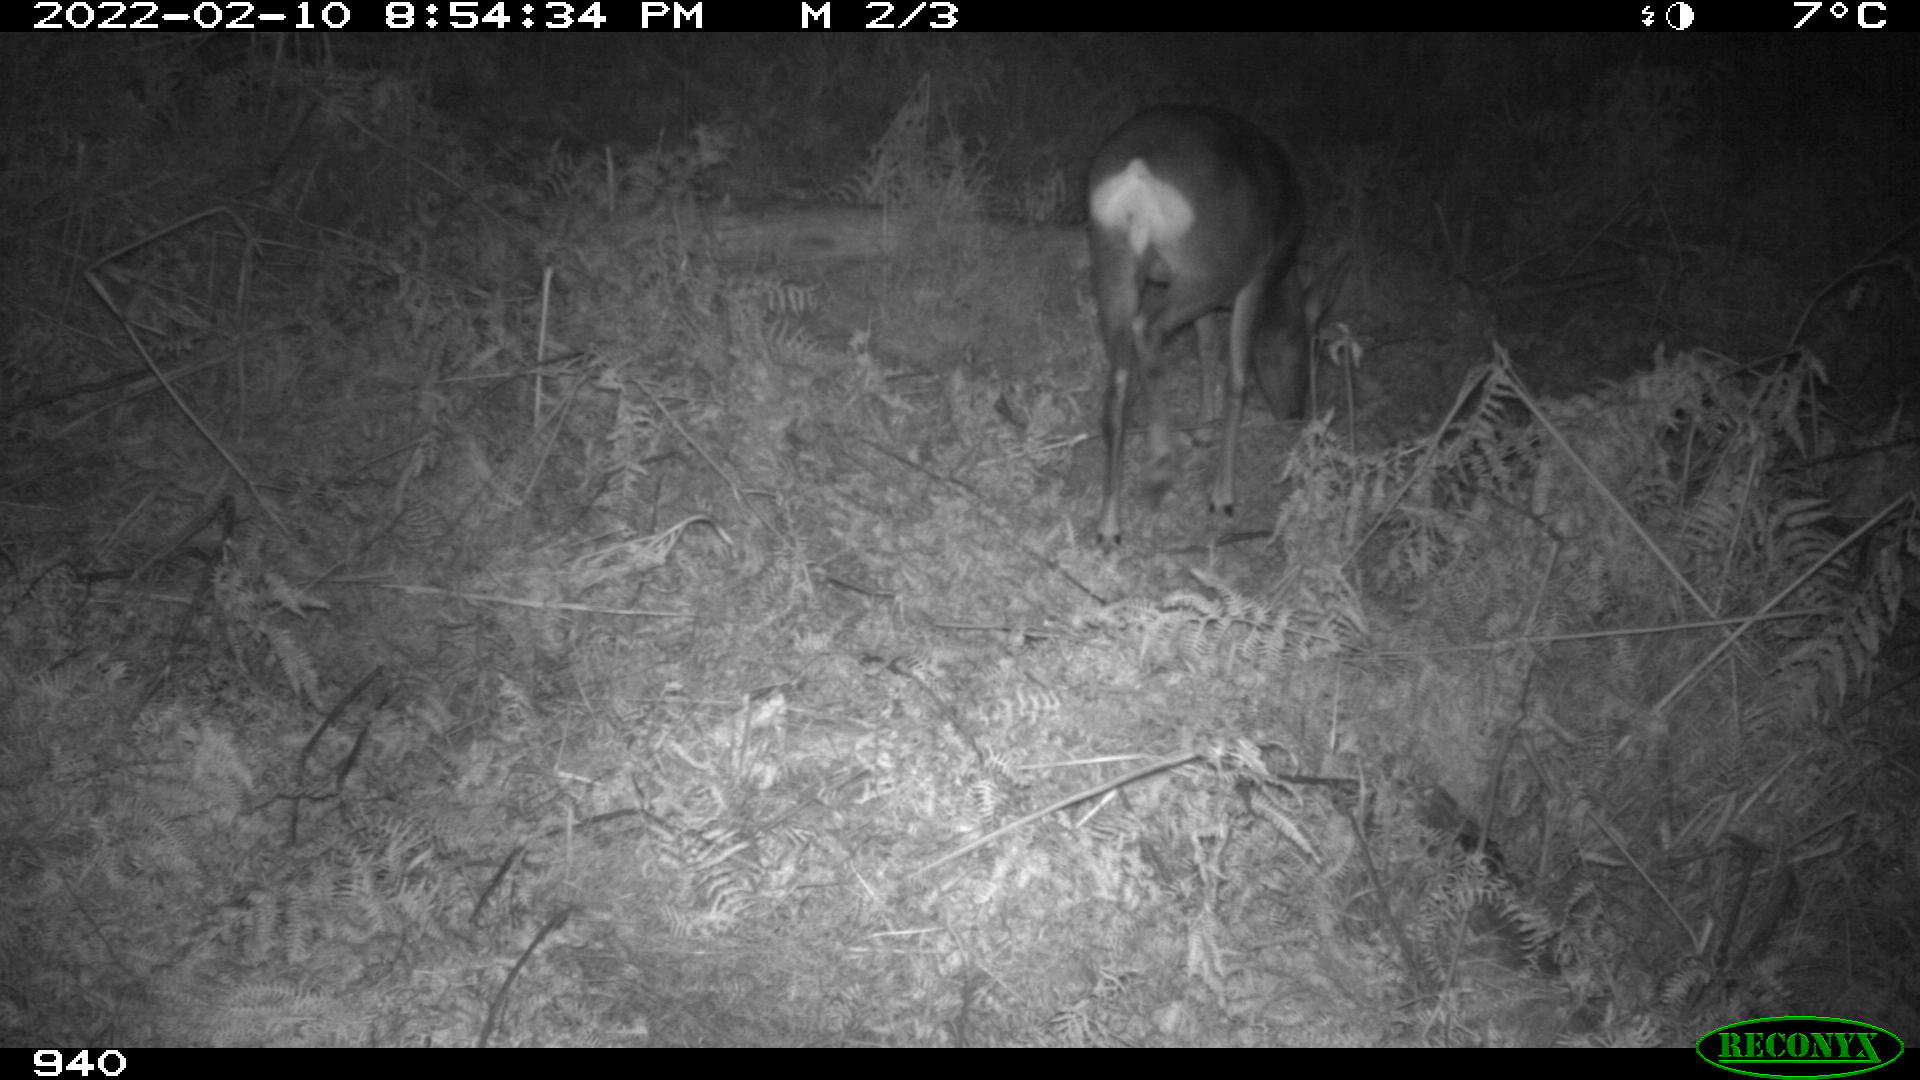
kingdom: Animalia
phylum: Chordata
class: Mammalia
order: Artiodactyla
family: Cervidae
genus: Capreolus
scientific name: Capreolus capreolus
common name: Western roe deer
